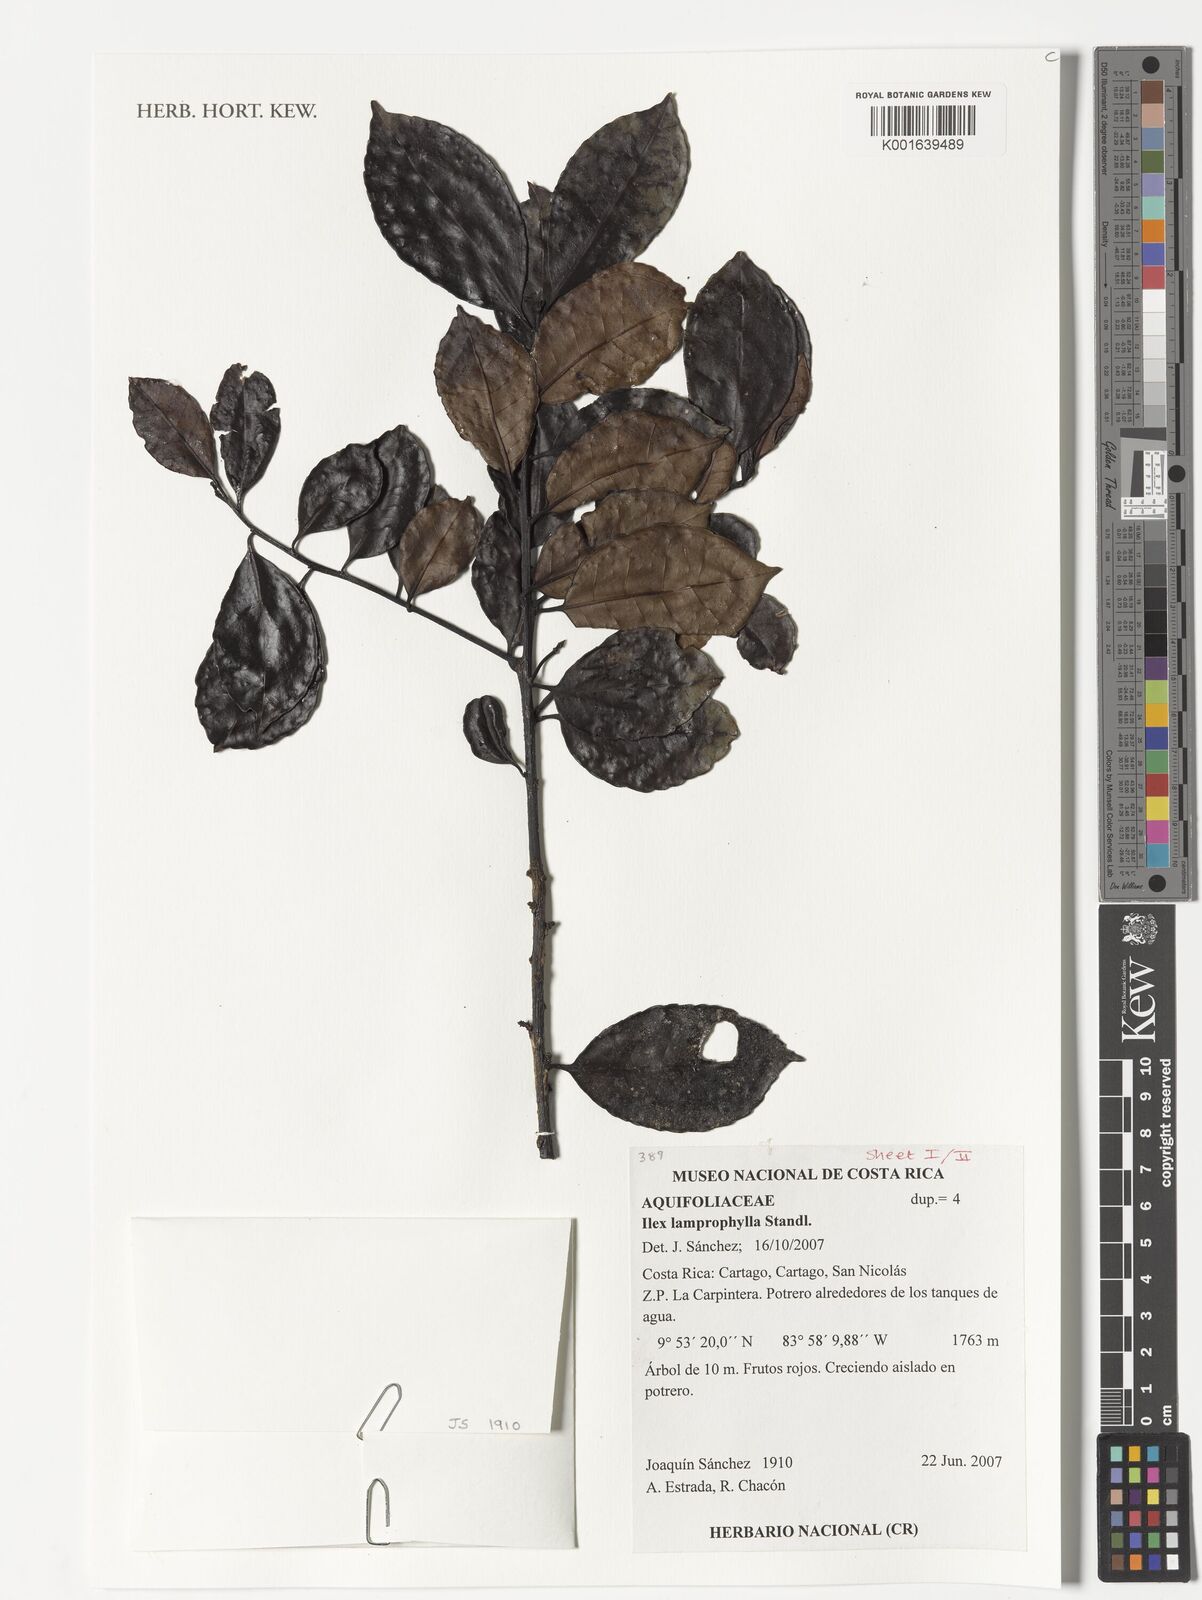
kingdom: Plantae
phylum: Tracheophyta
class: Magnoliopsida
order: Aquifoliales
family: Aquifoliaceae
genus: Ilex
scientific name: Ilex lamprophylla
